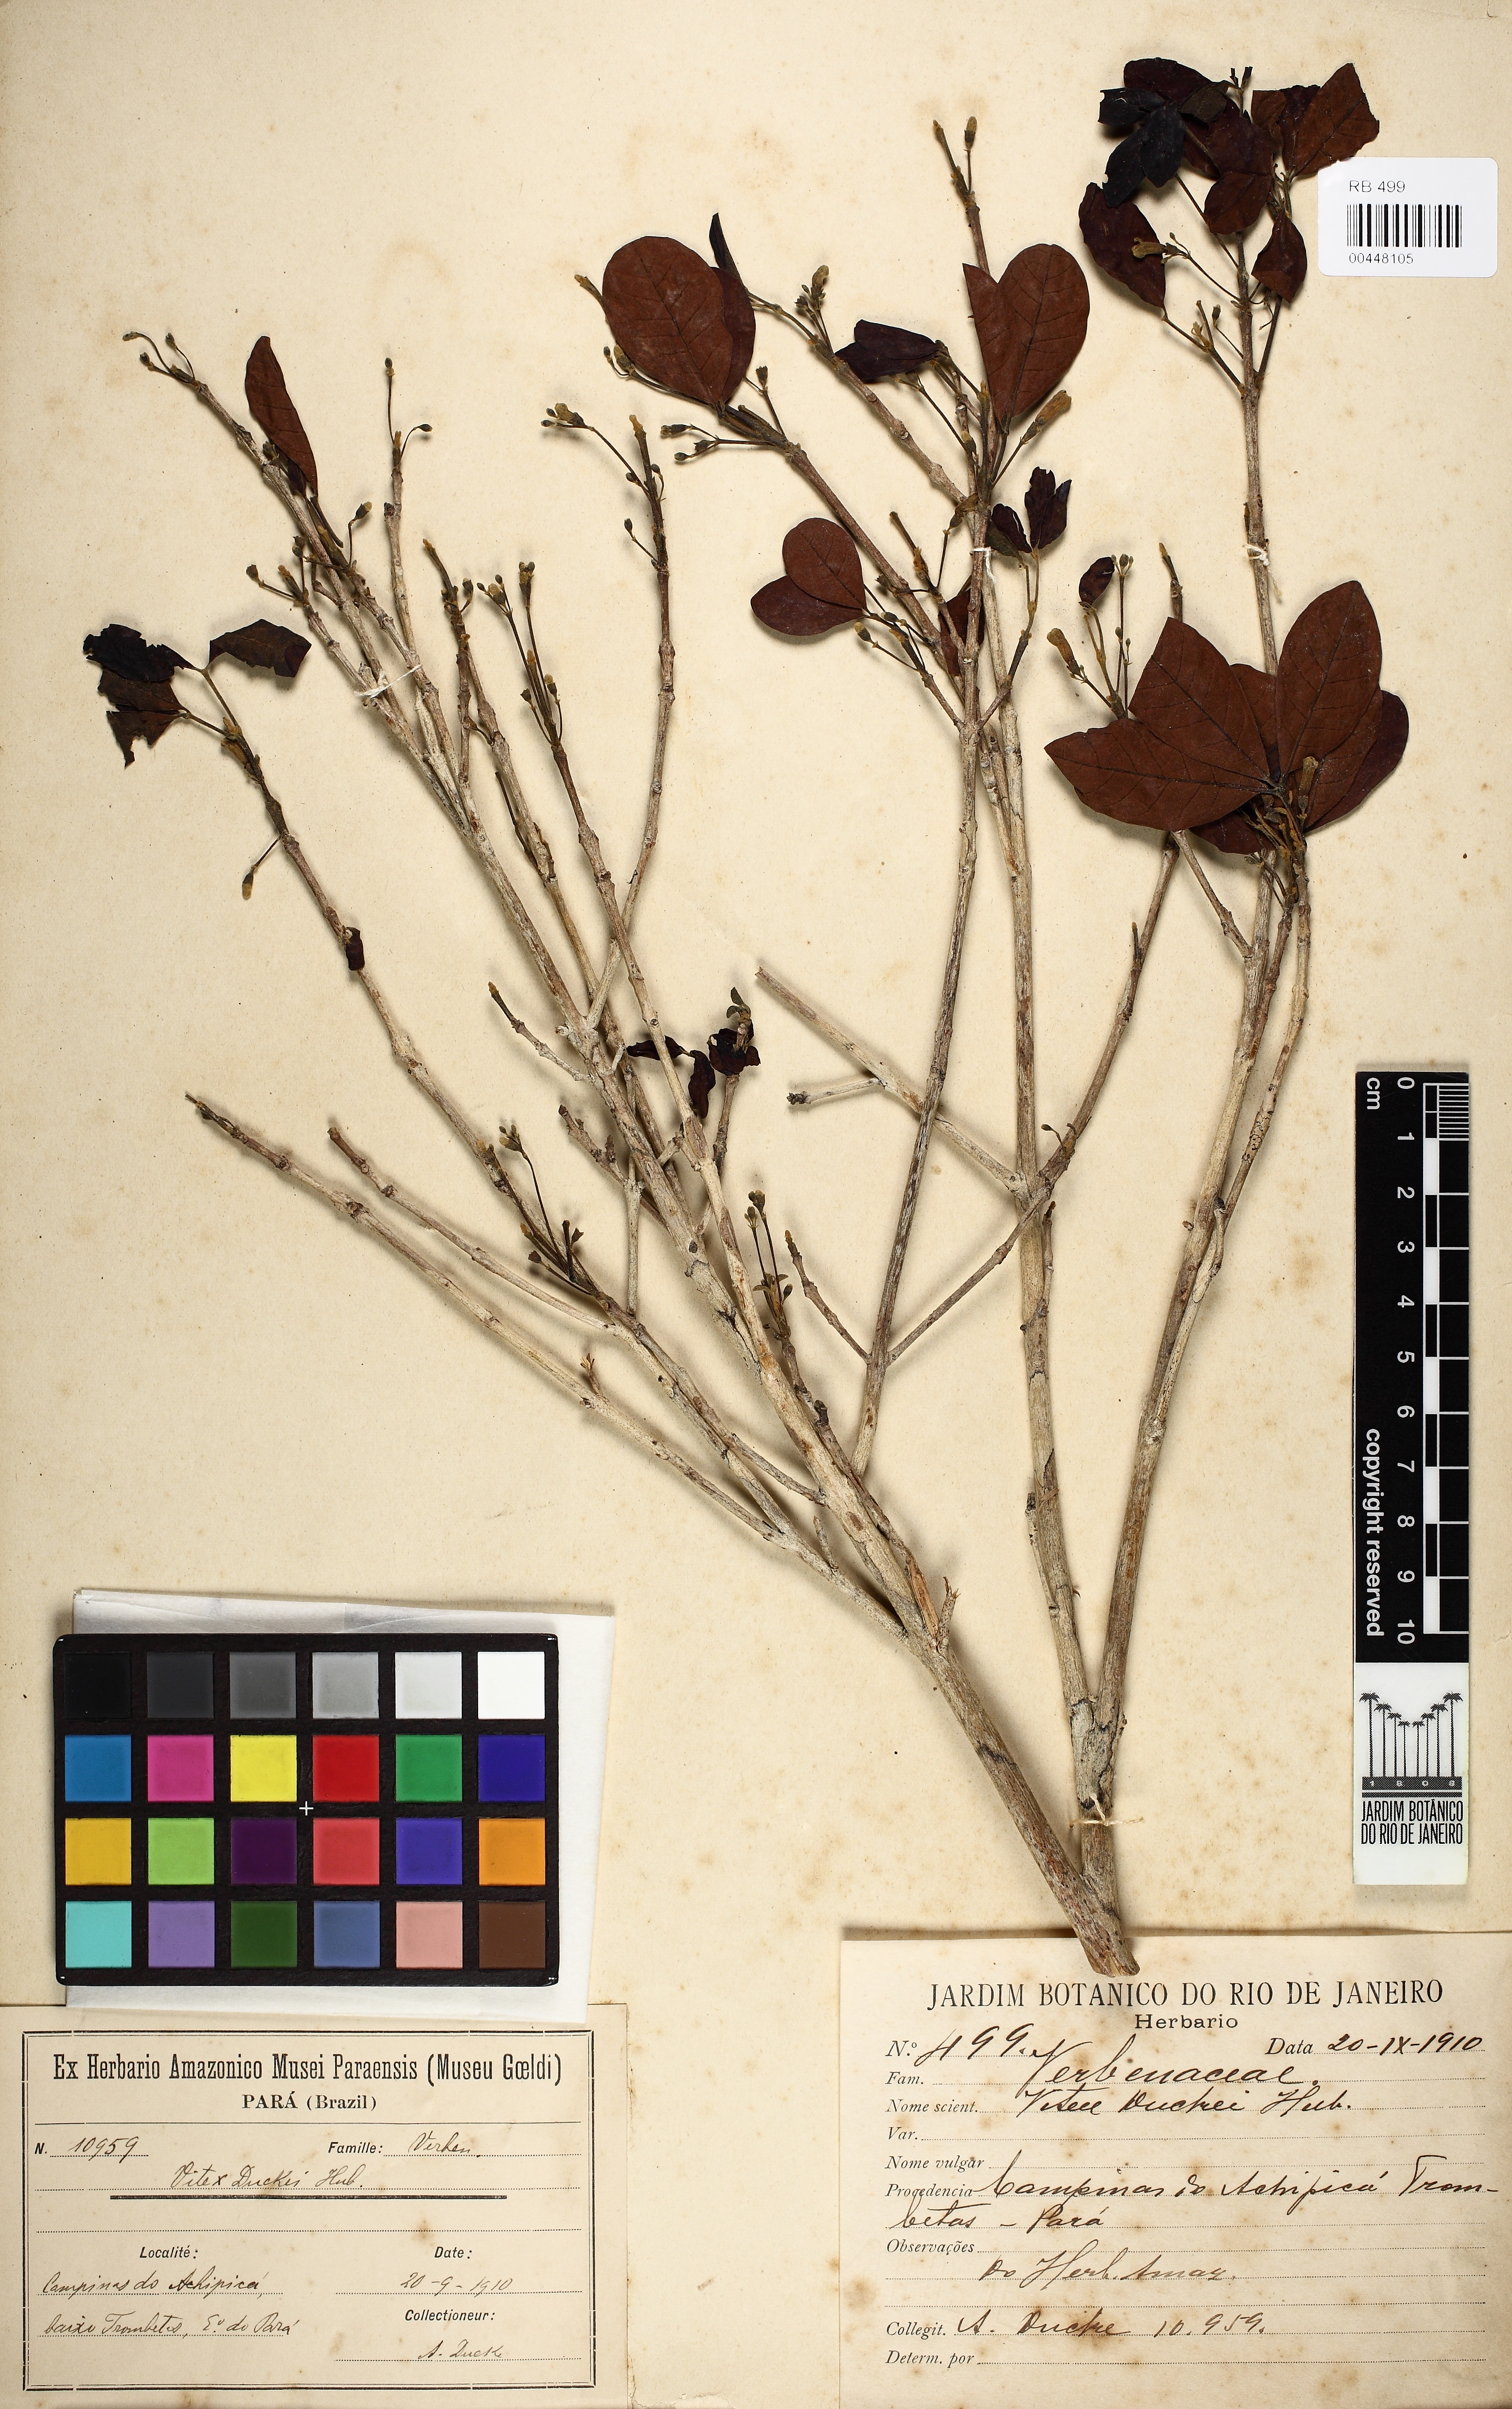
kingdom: Plantae
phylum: Tracheophyta
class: Magnoliopsida
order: Lamiales
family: Lamiaceae
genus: Vitex
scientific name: Vitex duckei
